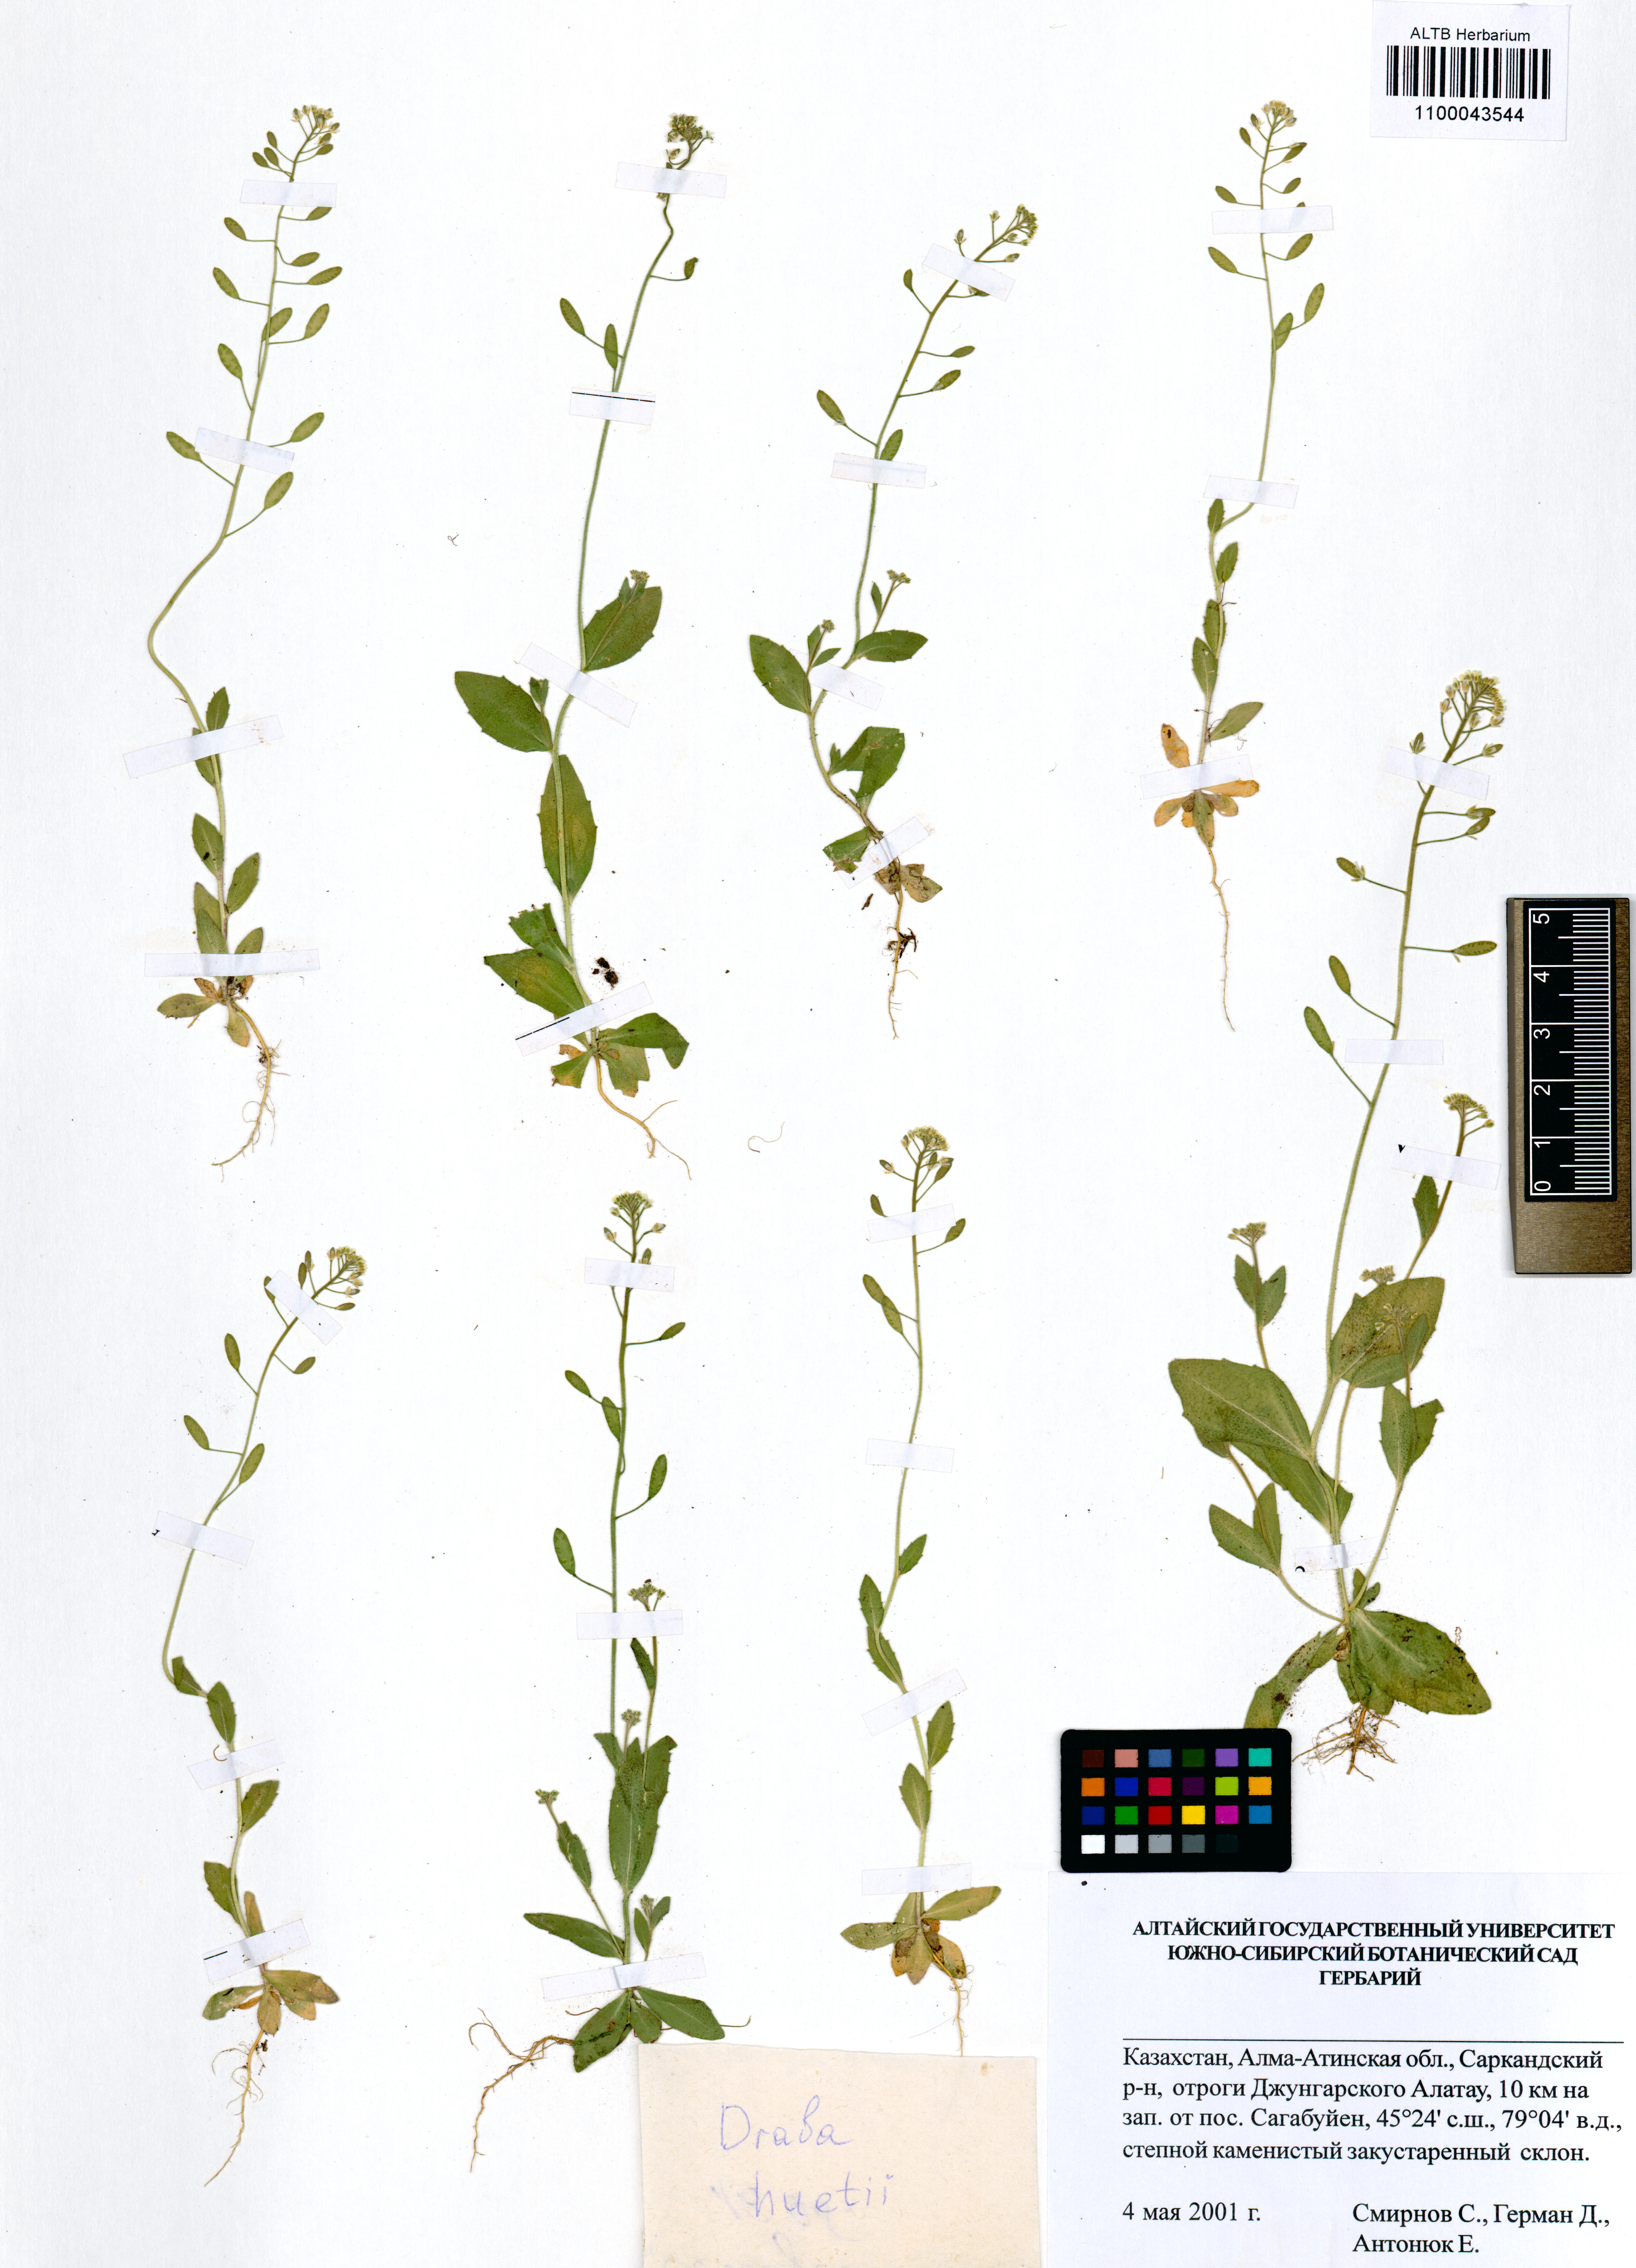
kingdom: Plantae
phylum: Tracheophyta
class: Magnoliopsida
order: Brassicales
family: Brassicaceae
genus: Draba
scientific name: Draba huetii
